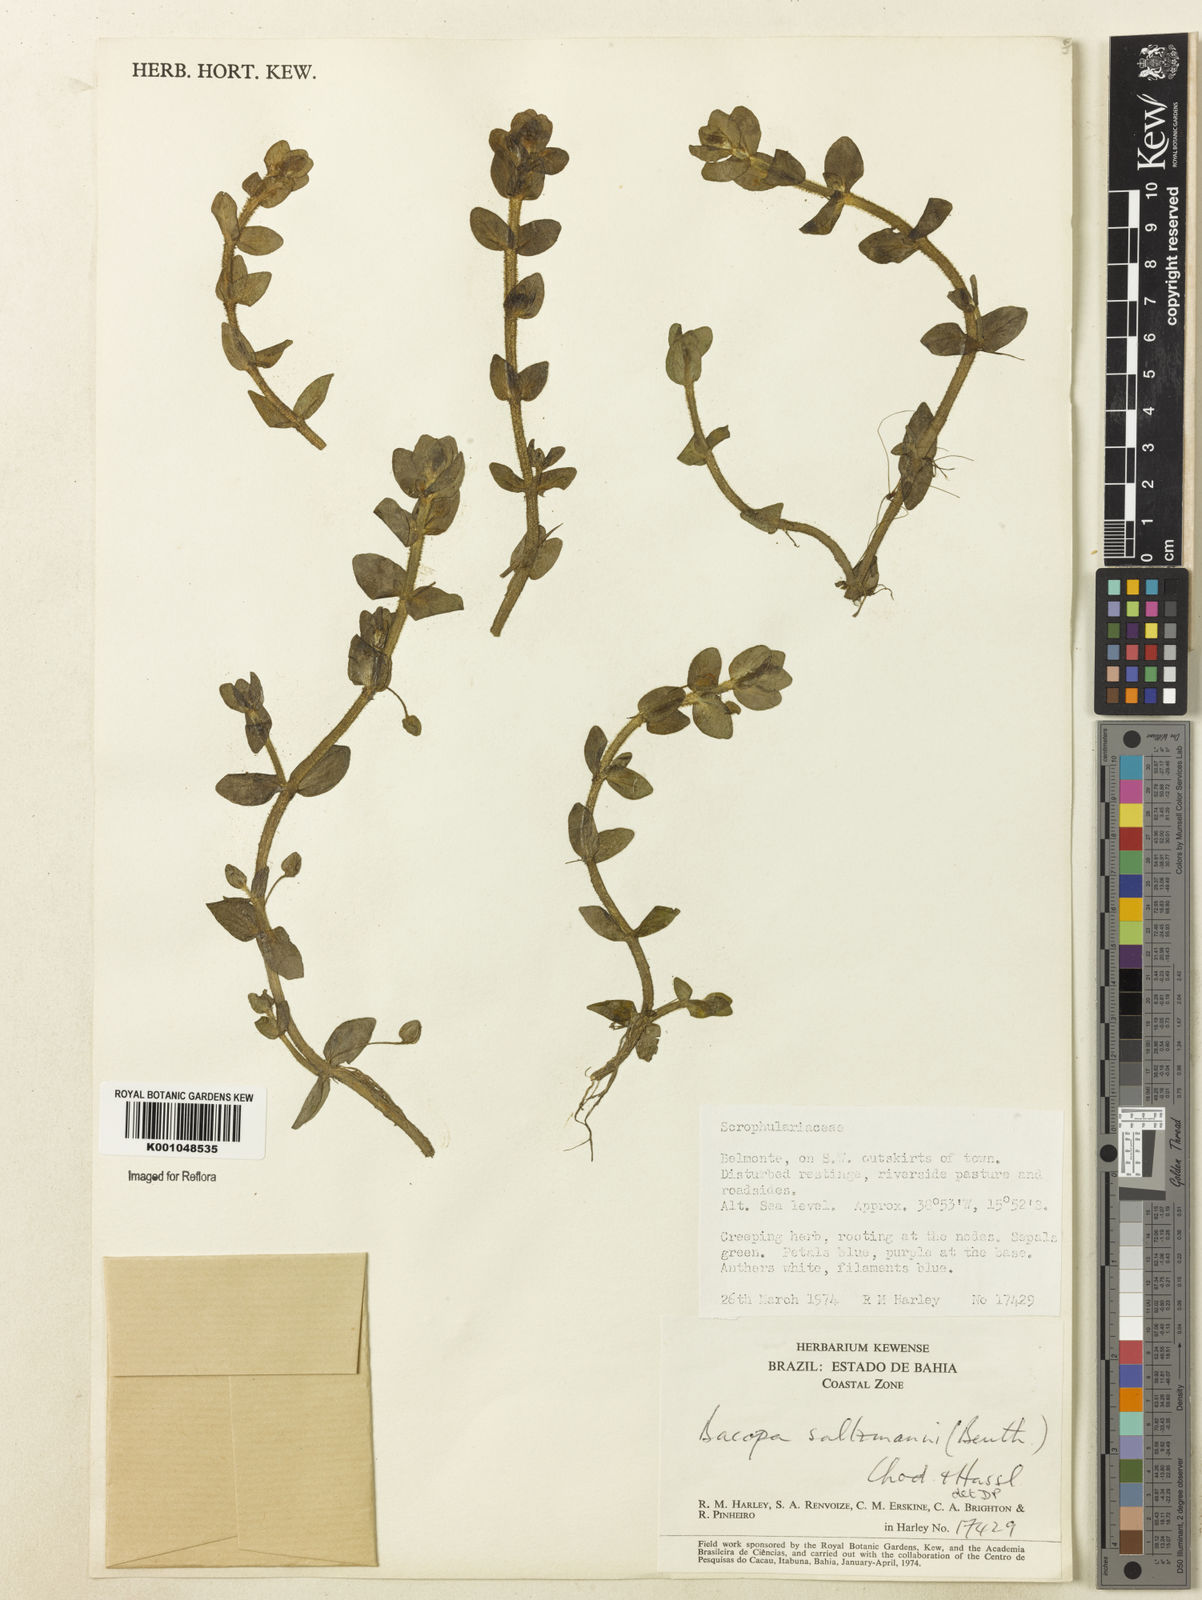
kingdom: Plantae
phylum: Tracheophyta
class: Magnoliopsida
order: Lamiales
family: Plantaginaceae
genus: Bacopa
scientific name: Bacopa salzmannii
